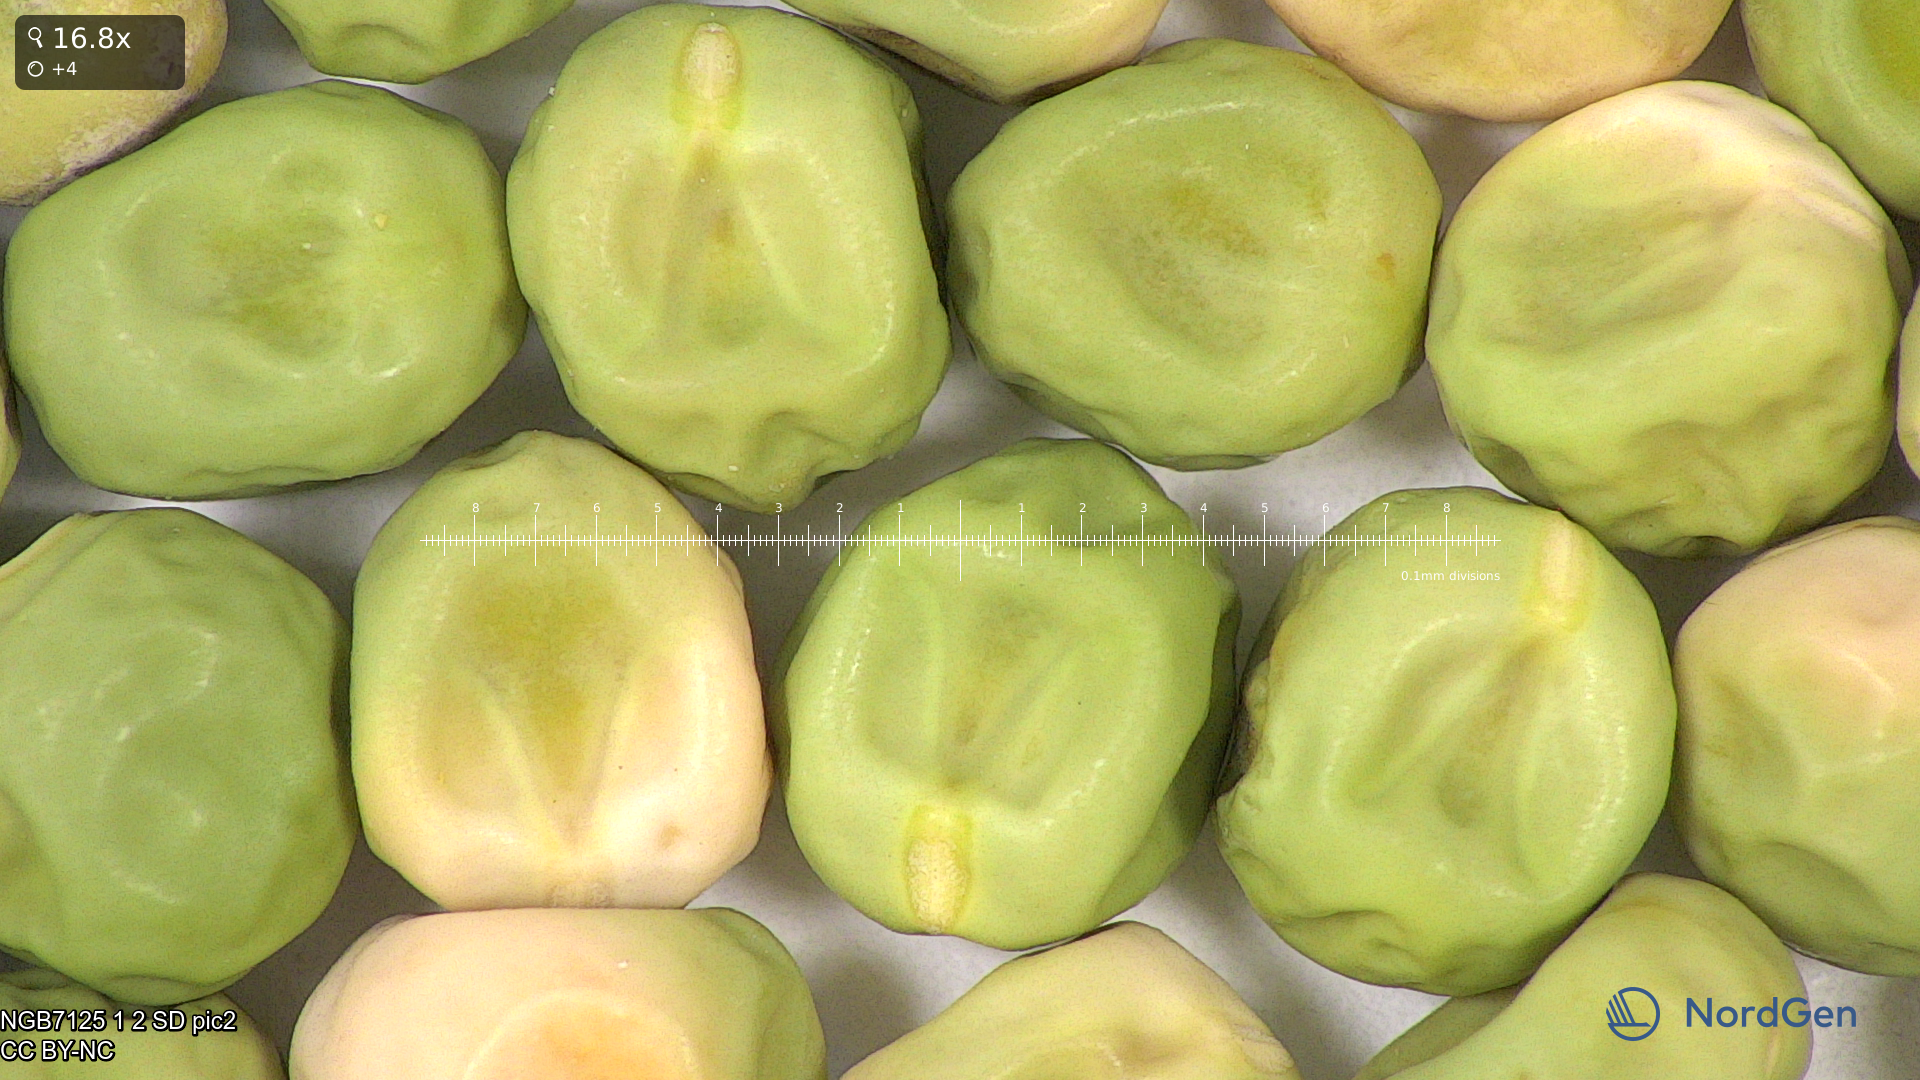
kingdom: Plantae
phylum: Tracheophyta
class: Magnoliopsida
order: Fabales
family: Fabaceae
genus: Lathyrus
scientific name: Lathyrus oleraceus
